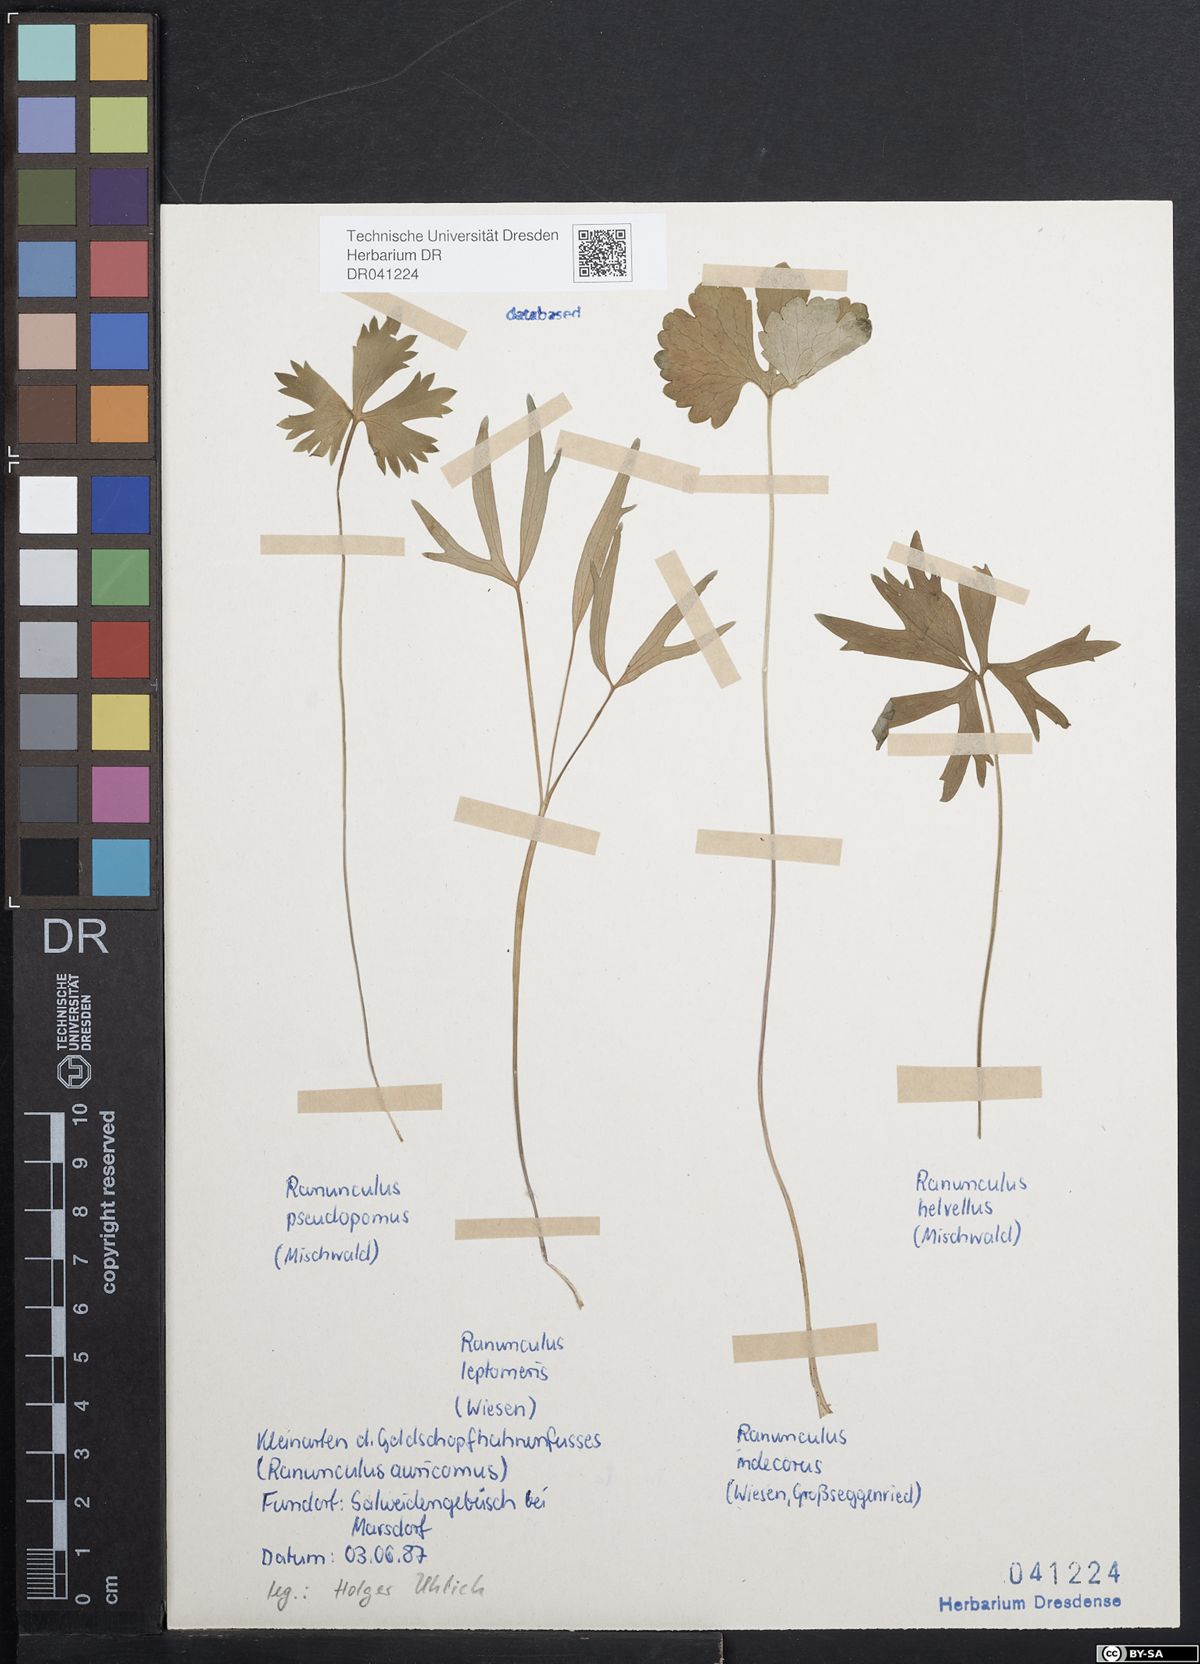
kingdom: Plantae
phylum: Tracheophyta
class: Magnoliopsida
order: Ranunculales
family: Ranunculaceae
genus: Ranunculus
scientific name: Ranunculus auricomus
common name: Goldilocks buttercup
